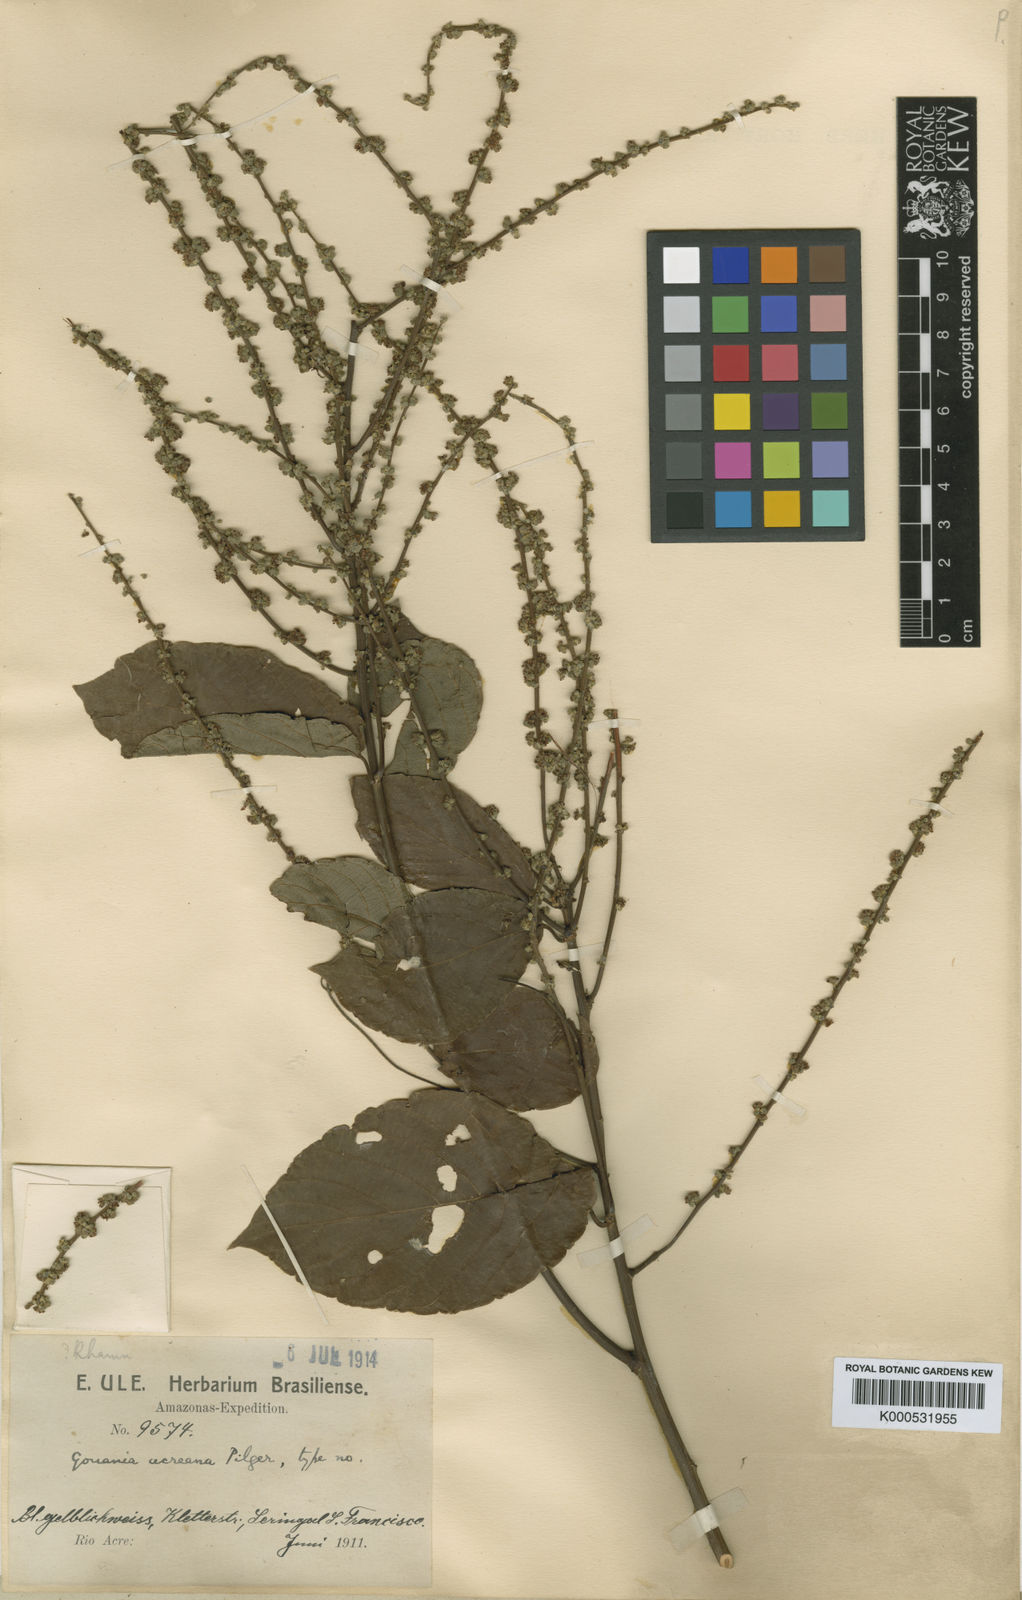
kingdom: Plantae
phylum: Tracheophyta
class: Magnoliopsida
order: Rosales
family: Rhamnaceae
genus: Gouania
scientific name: Gouania acreana
